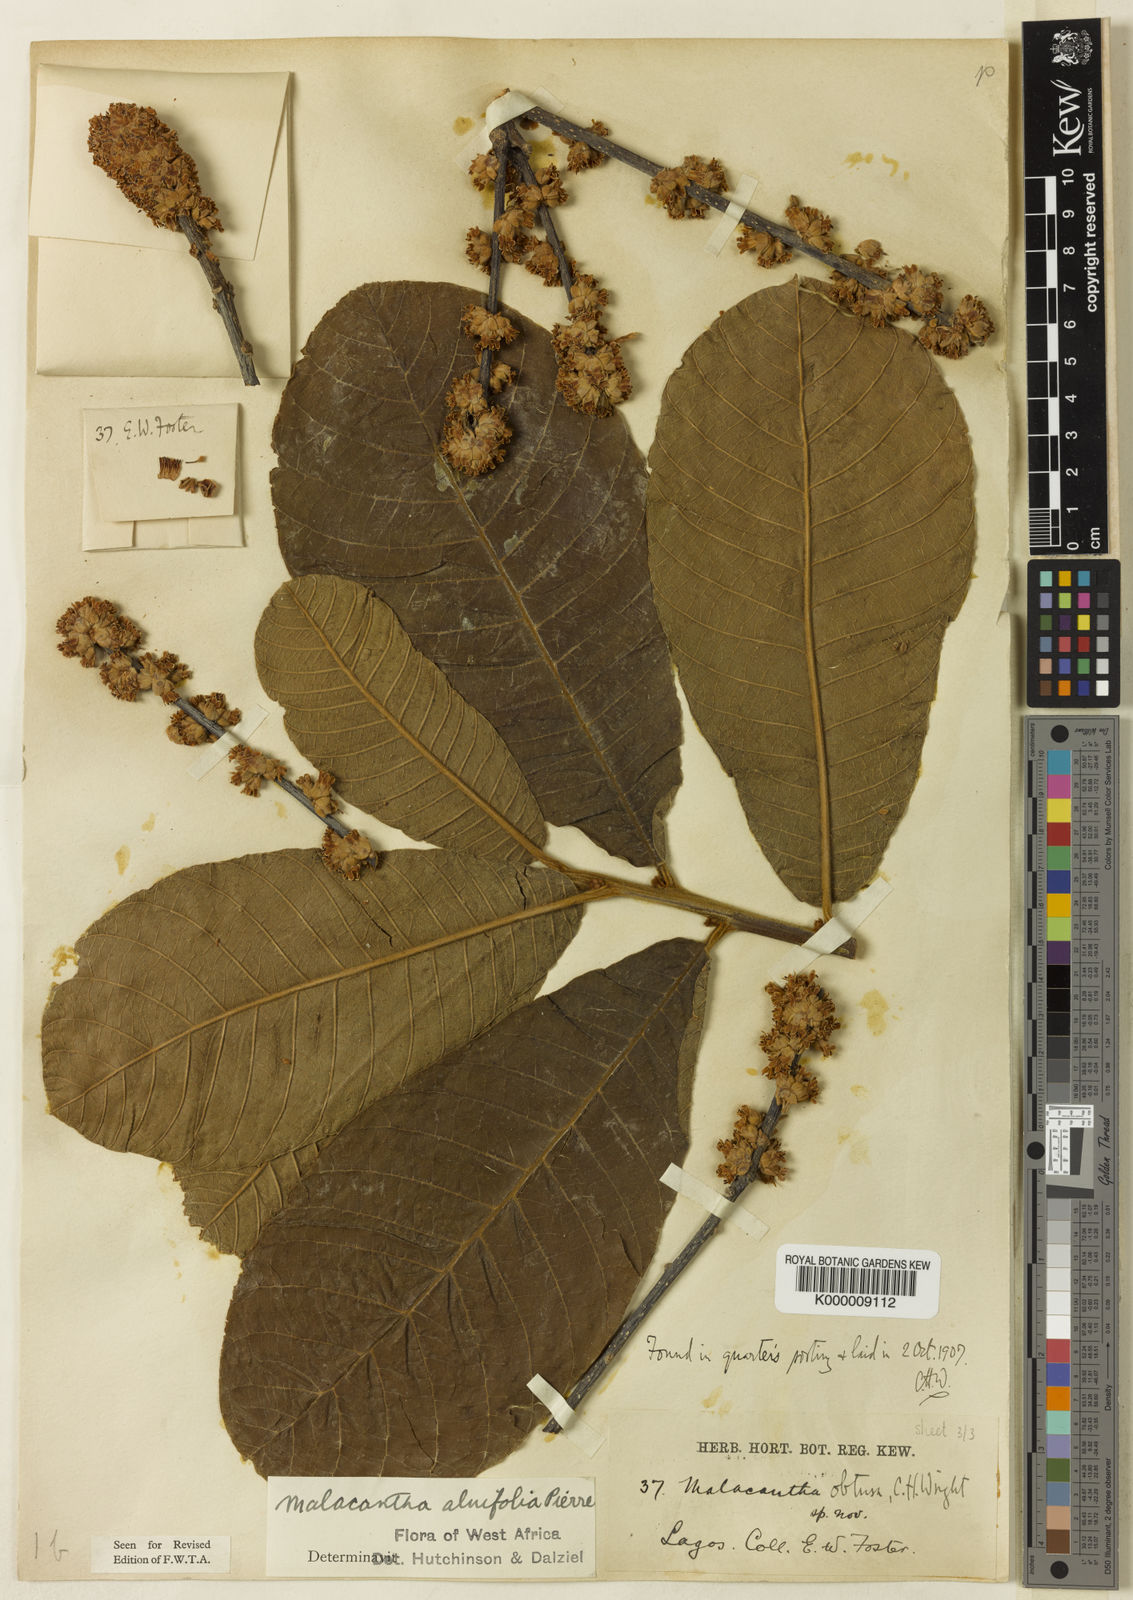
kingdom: Plantae
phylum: Tracheophyta
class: Magnoliopsida
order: Ericales
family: Sapotaceae
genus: Malacantha
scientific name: Malacantha alnifolia
